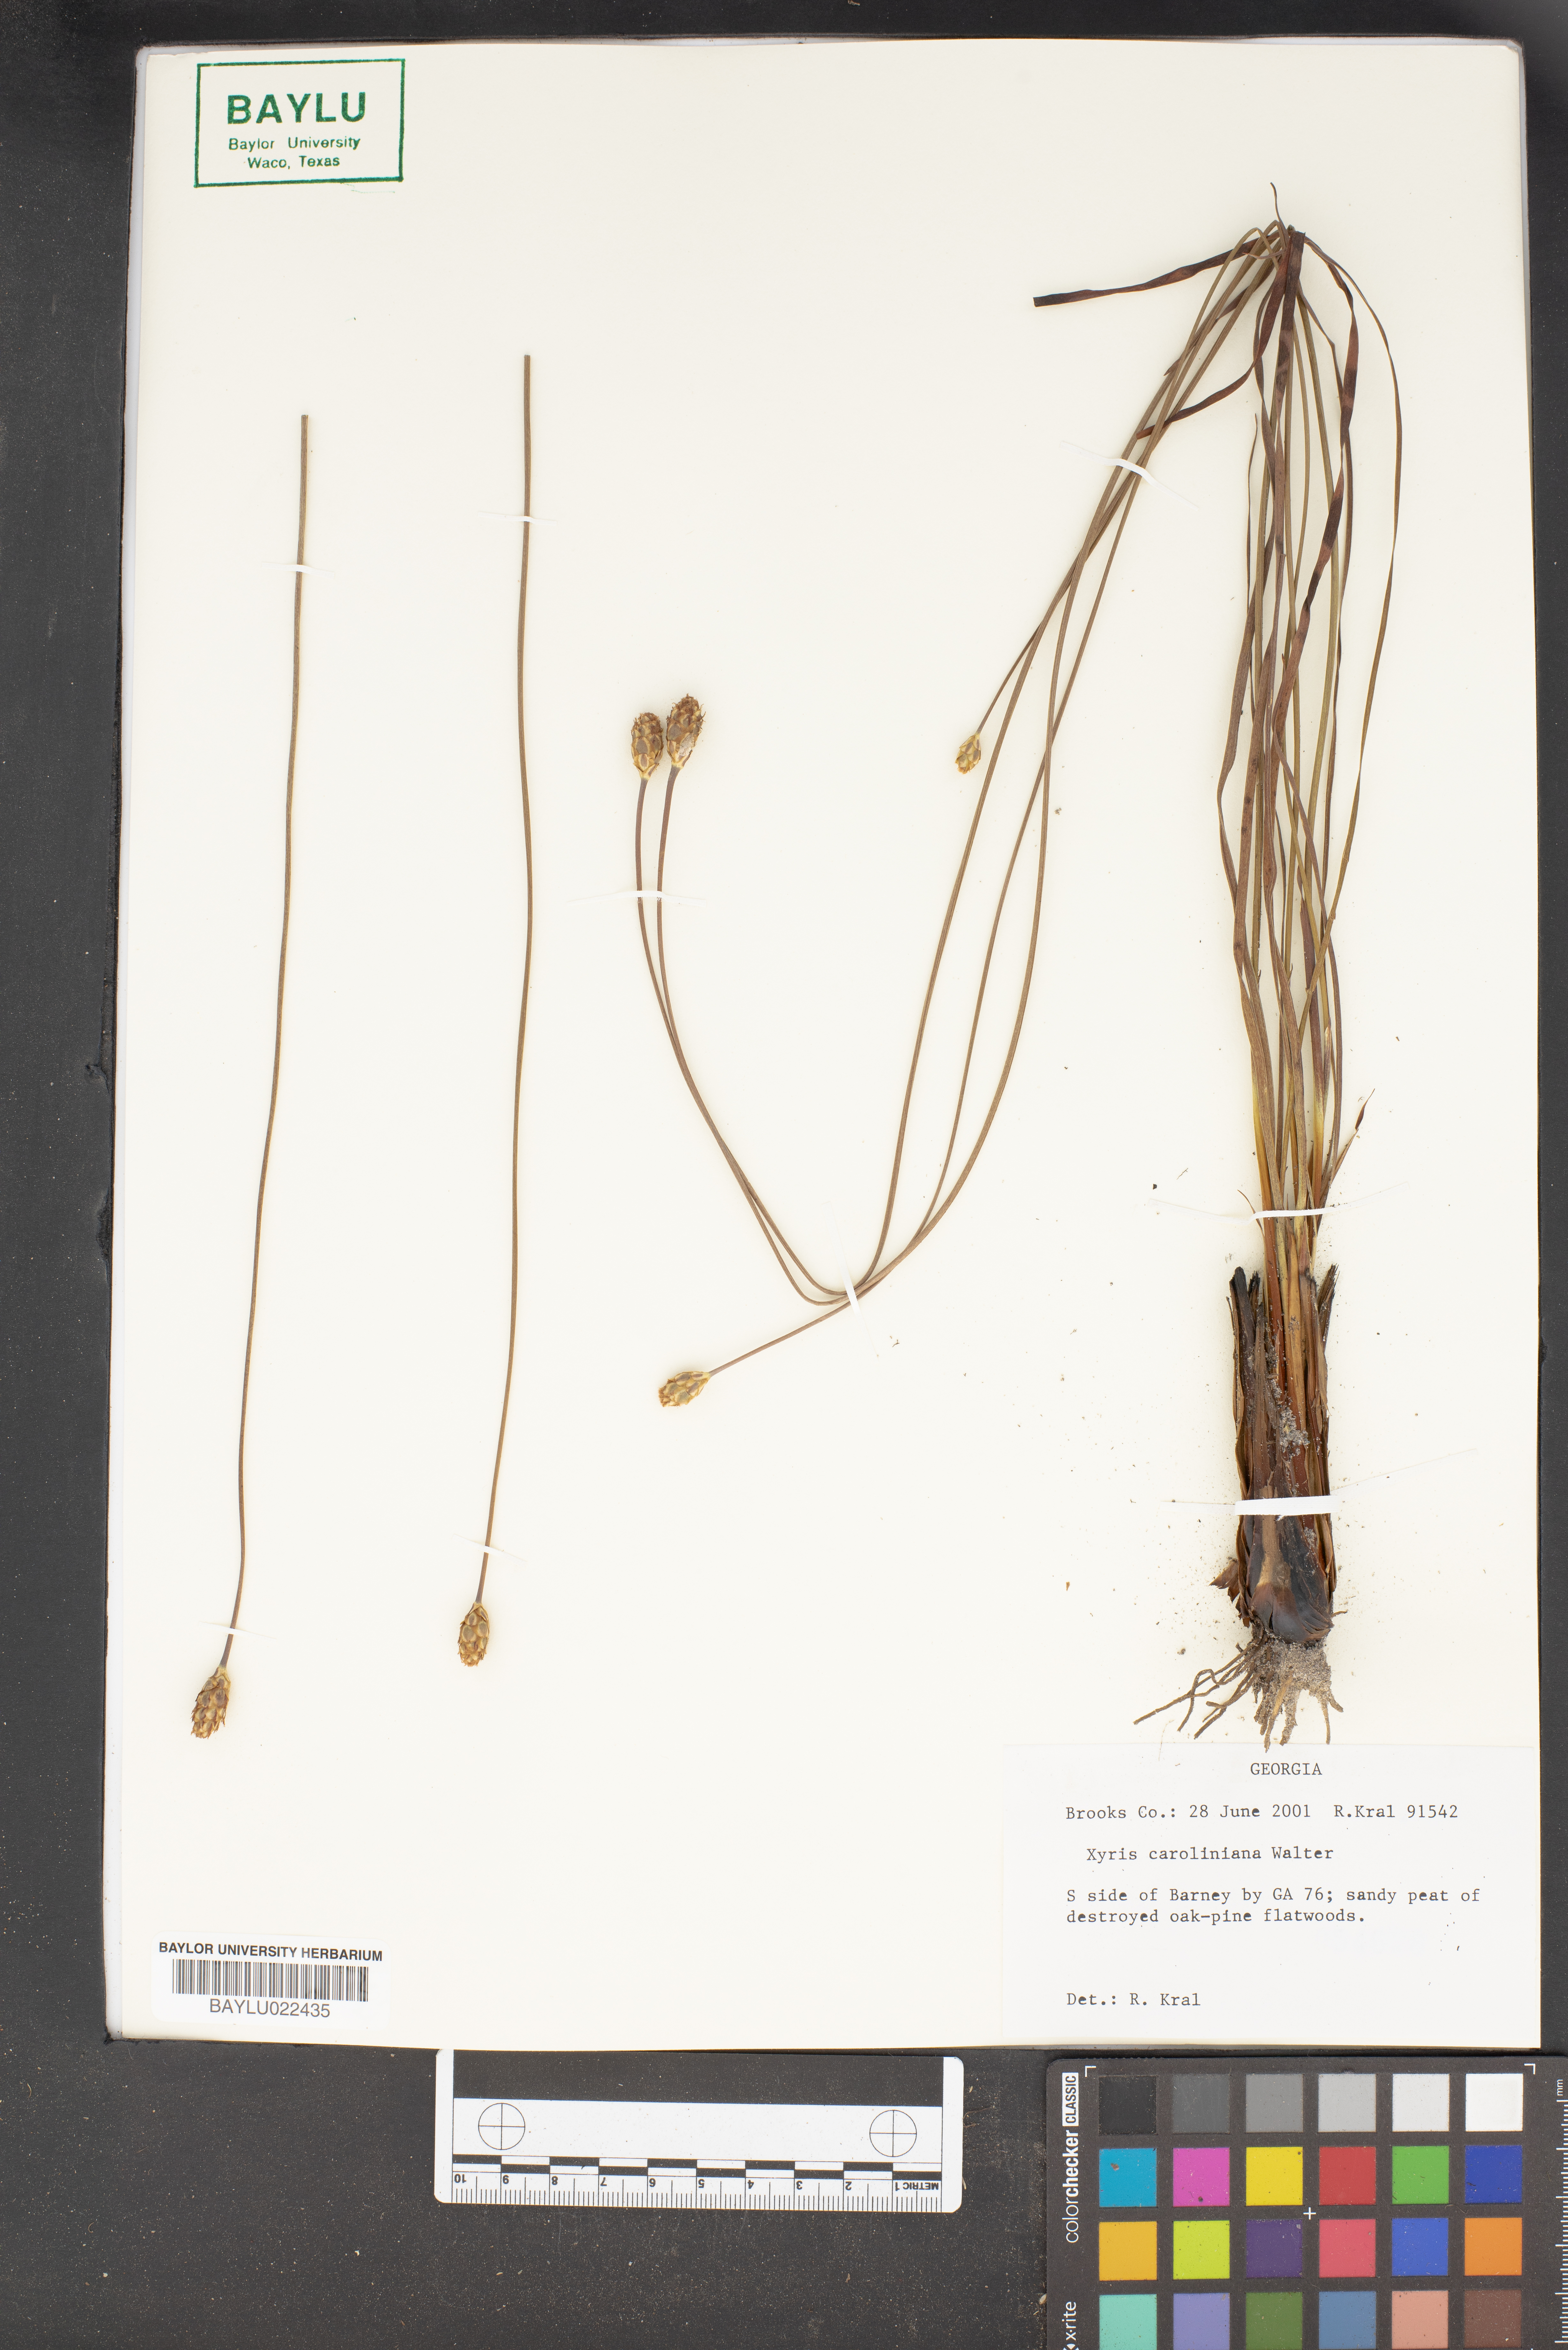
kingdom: Plantae
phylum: Tracheophyta
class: Liliopsida
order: Poales
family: Xyridaceae
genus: Xyris
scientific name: Xyris caroliniana
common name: Carolina yellow-eyed-grass
